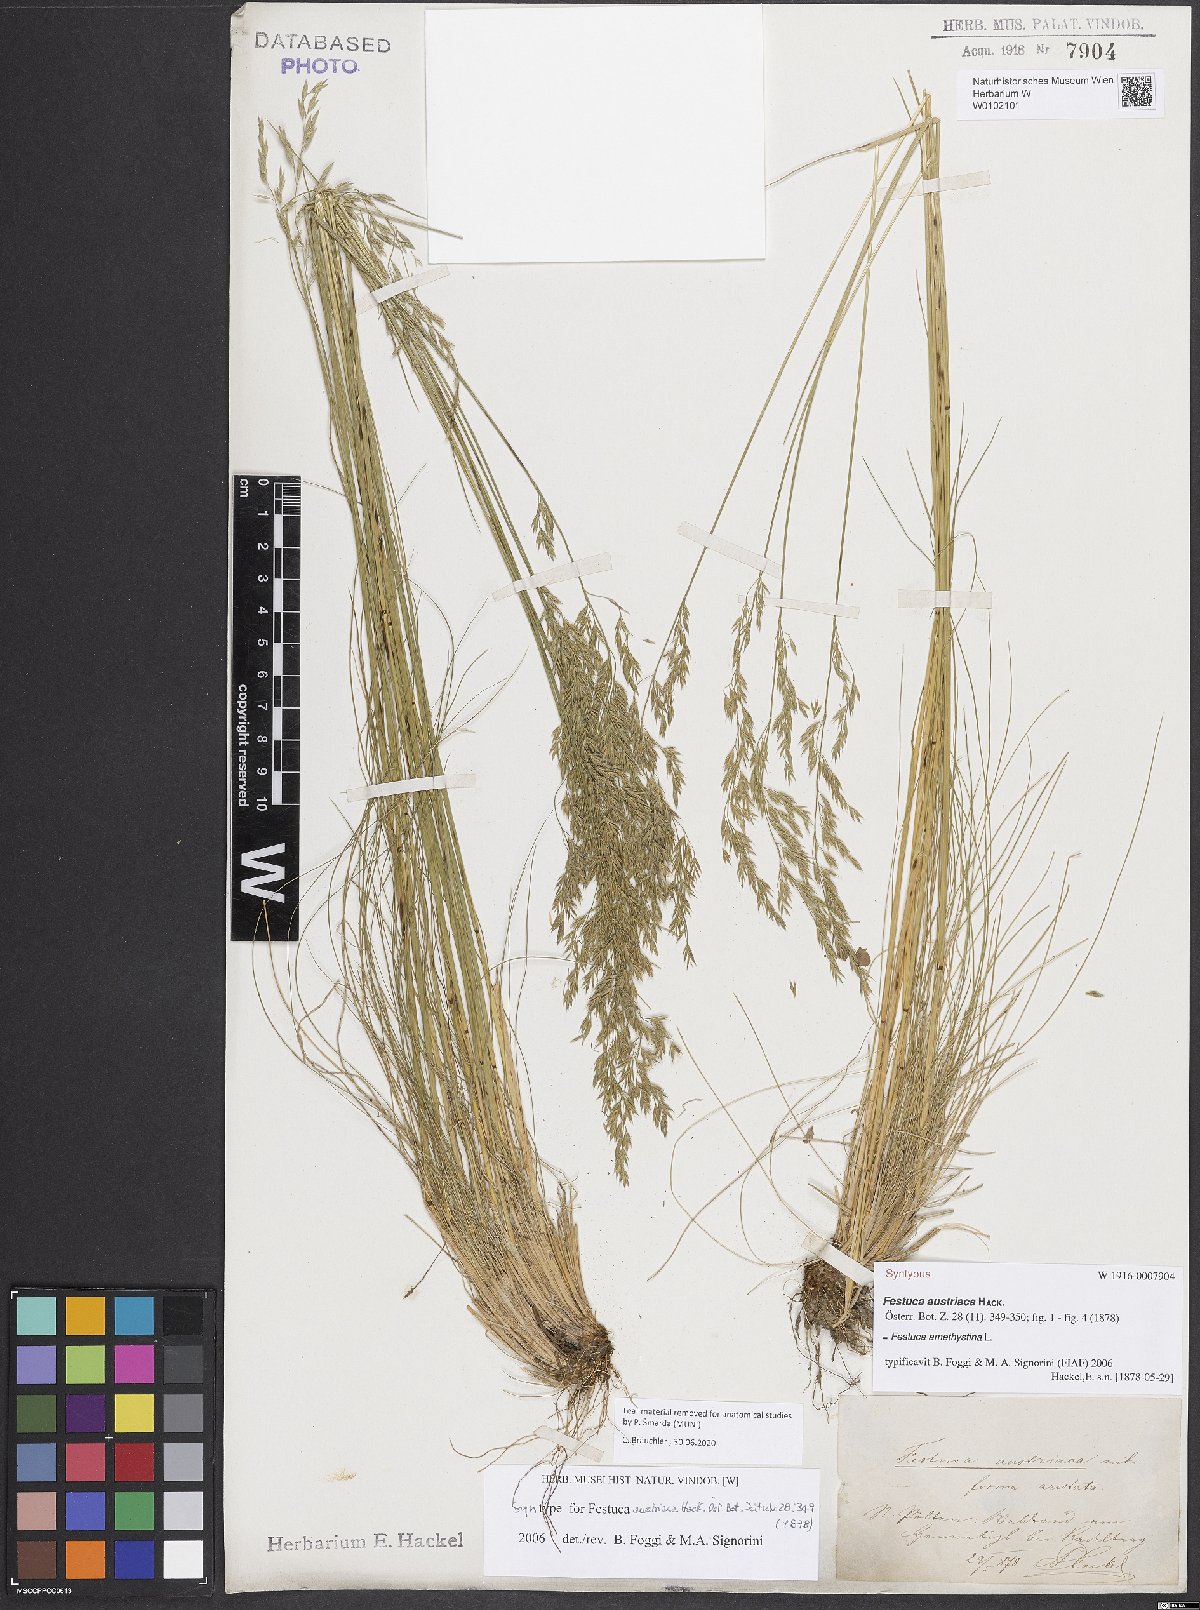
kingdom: Plantae
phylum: Tracheophyta
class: Liliopsida
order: Poales
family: Poaceae
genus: Festuca
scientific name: Festuca amethystina
